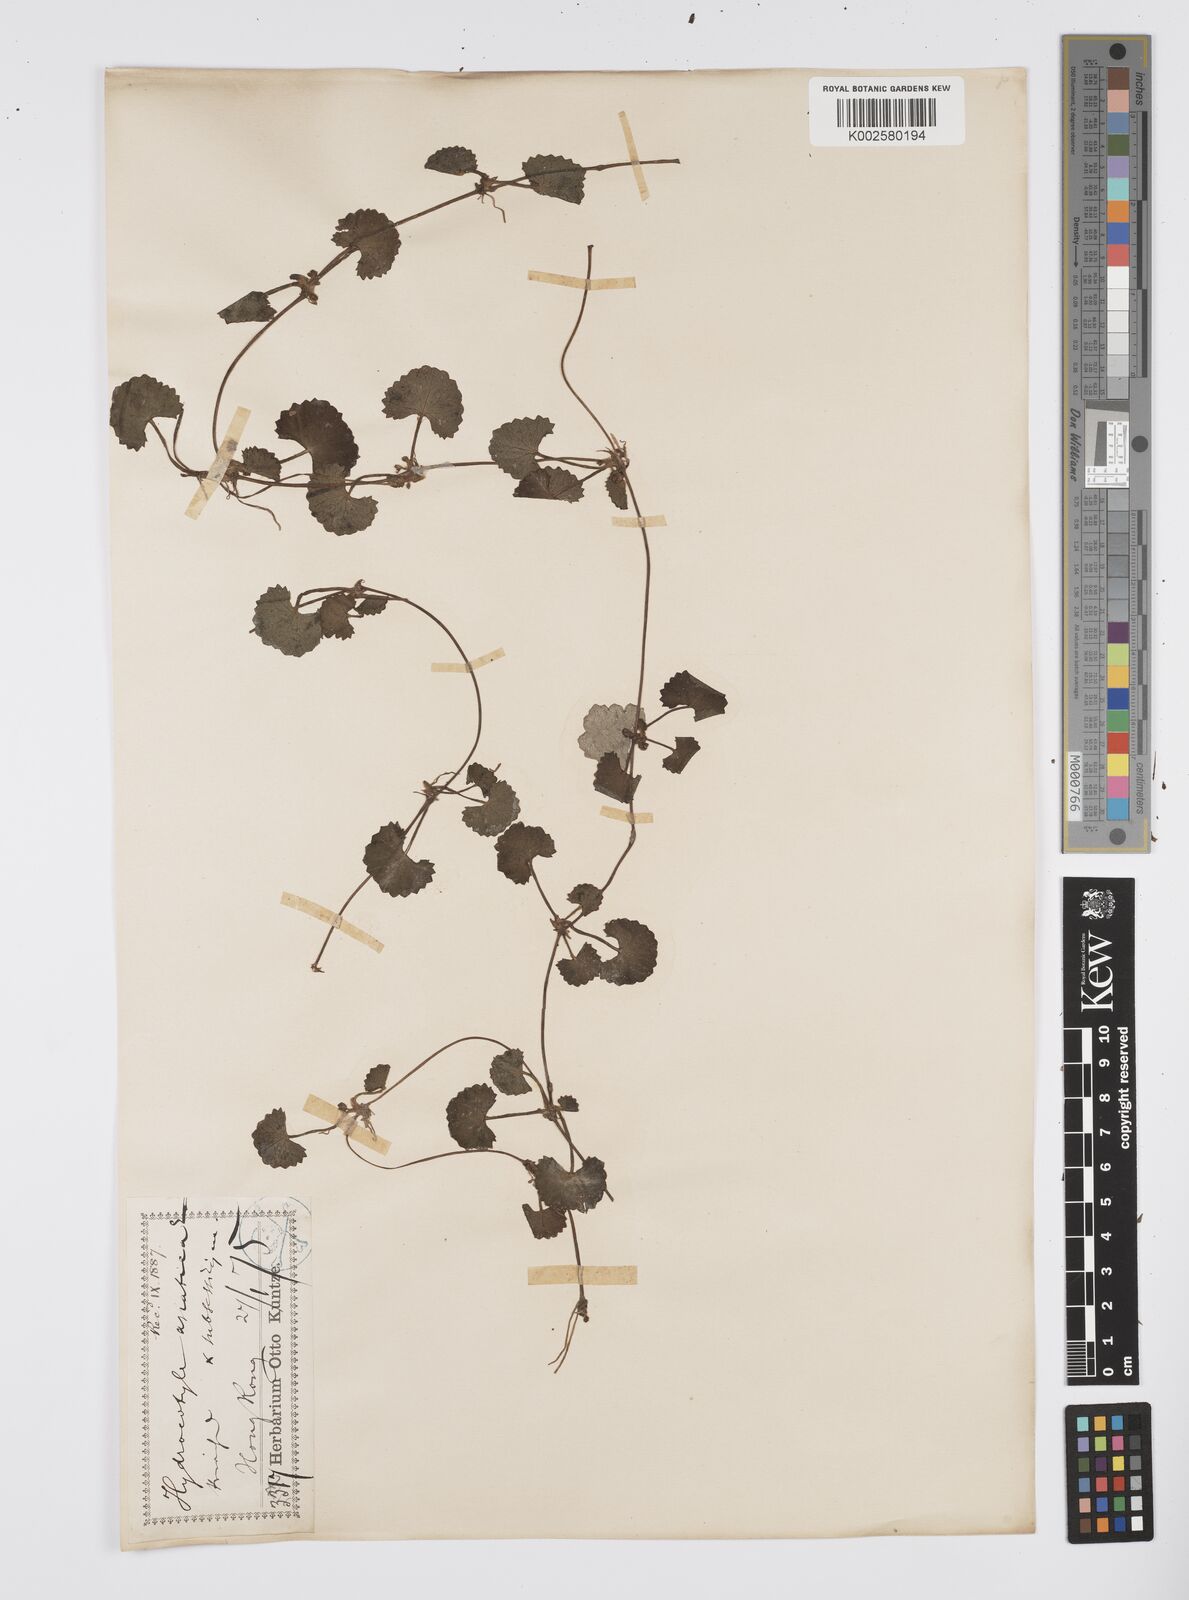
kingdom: Plantae
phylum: Tracheophyta
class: Magnoliopsida
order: Apiales
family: Apiaceae
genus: Centella
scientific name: Centella
